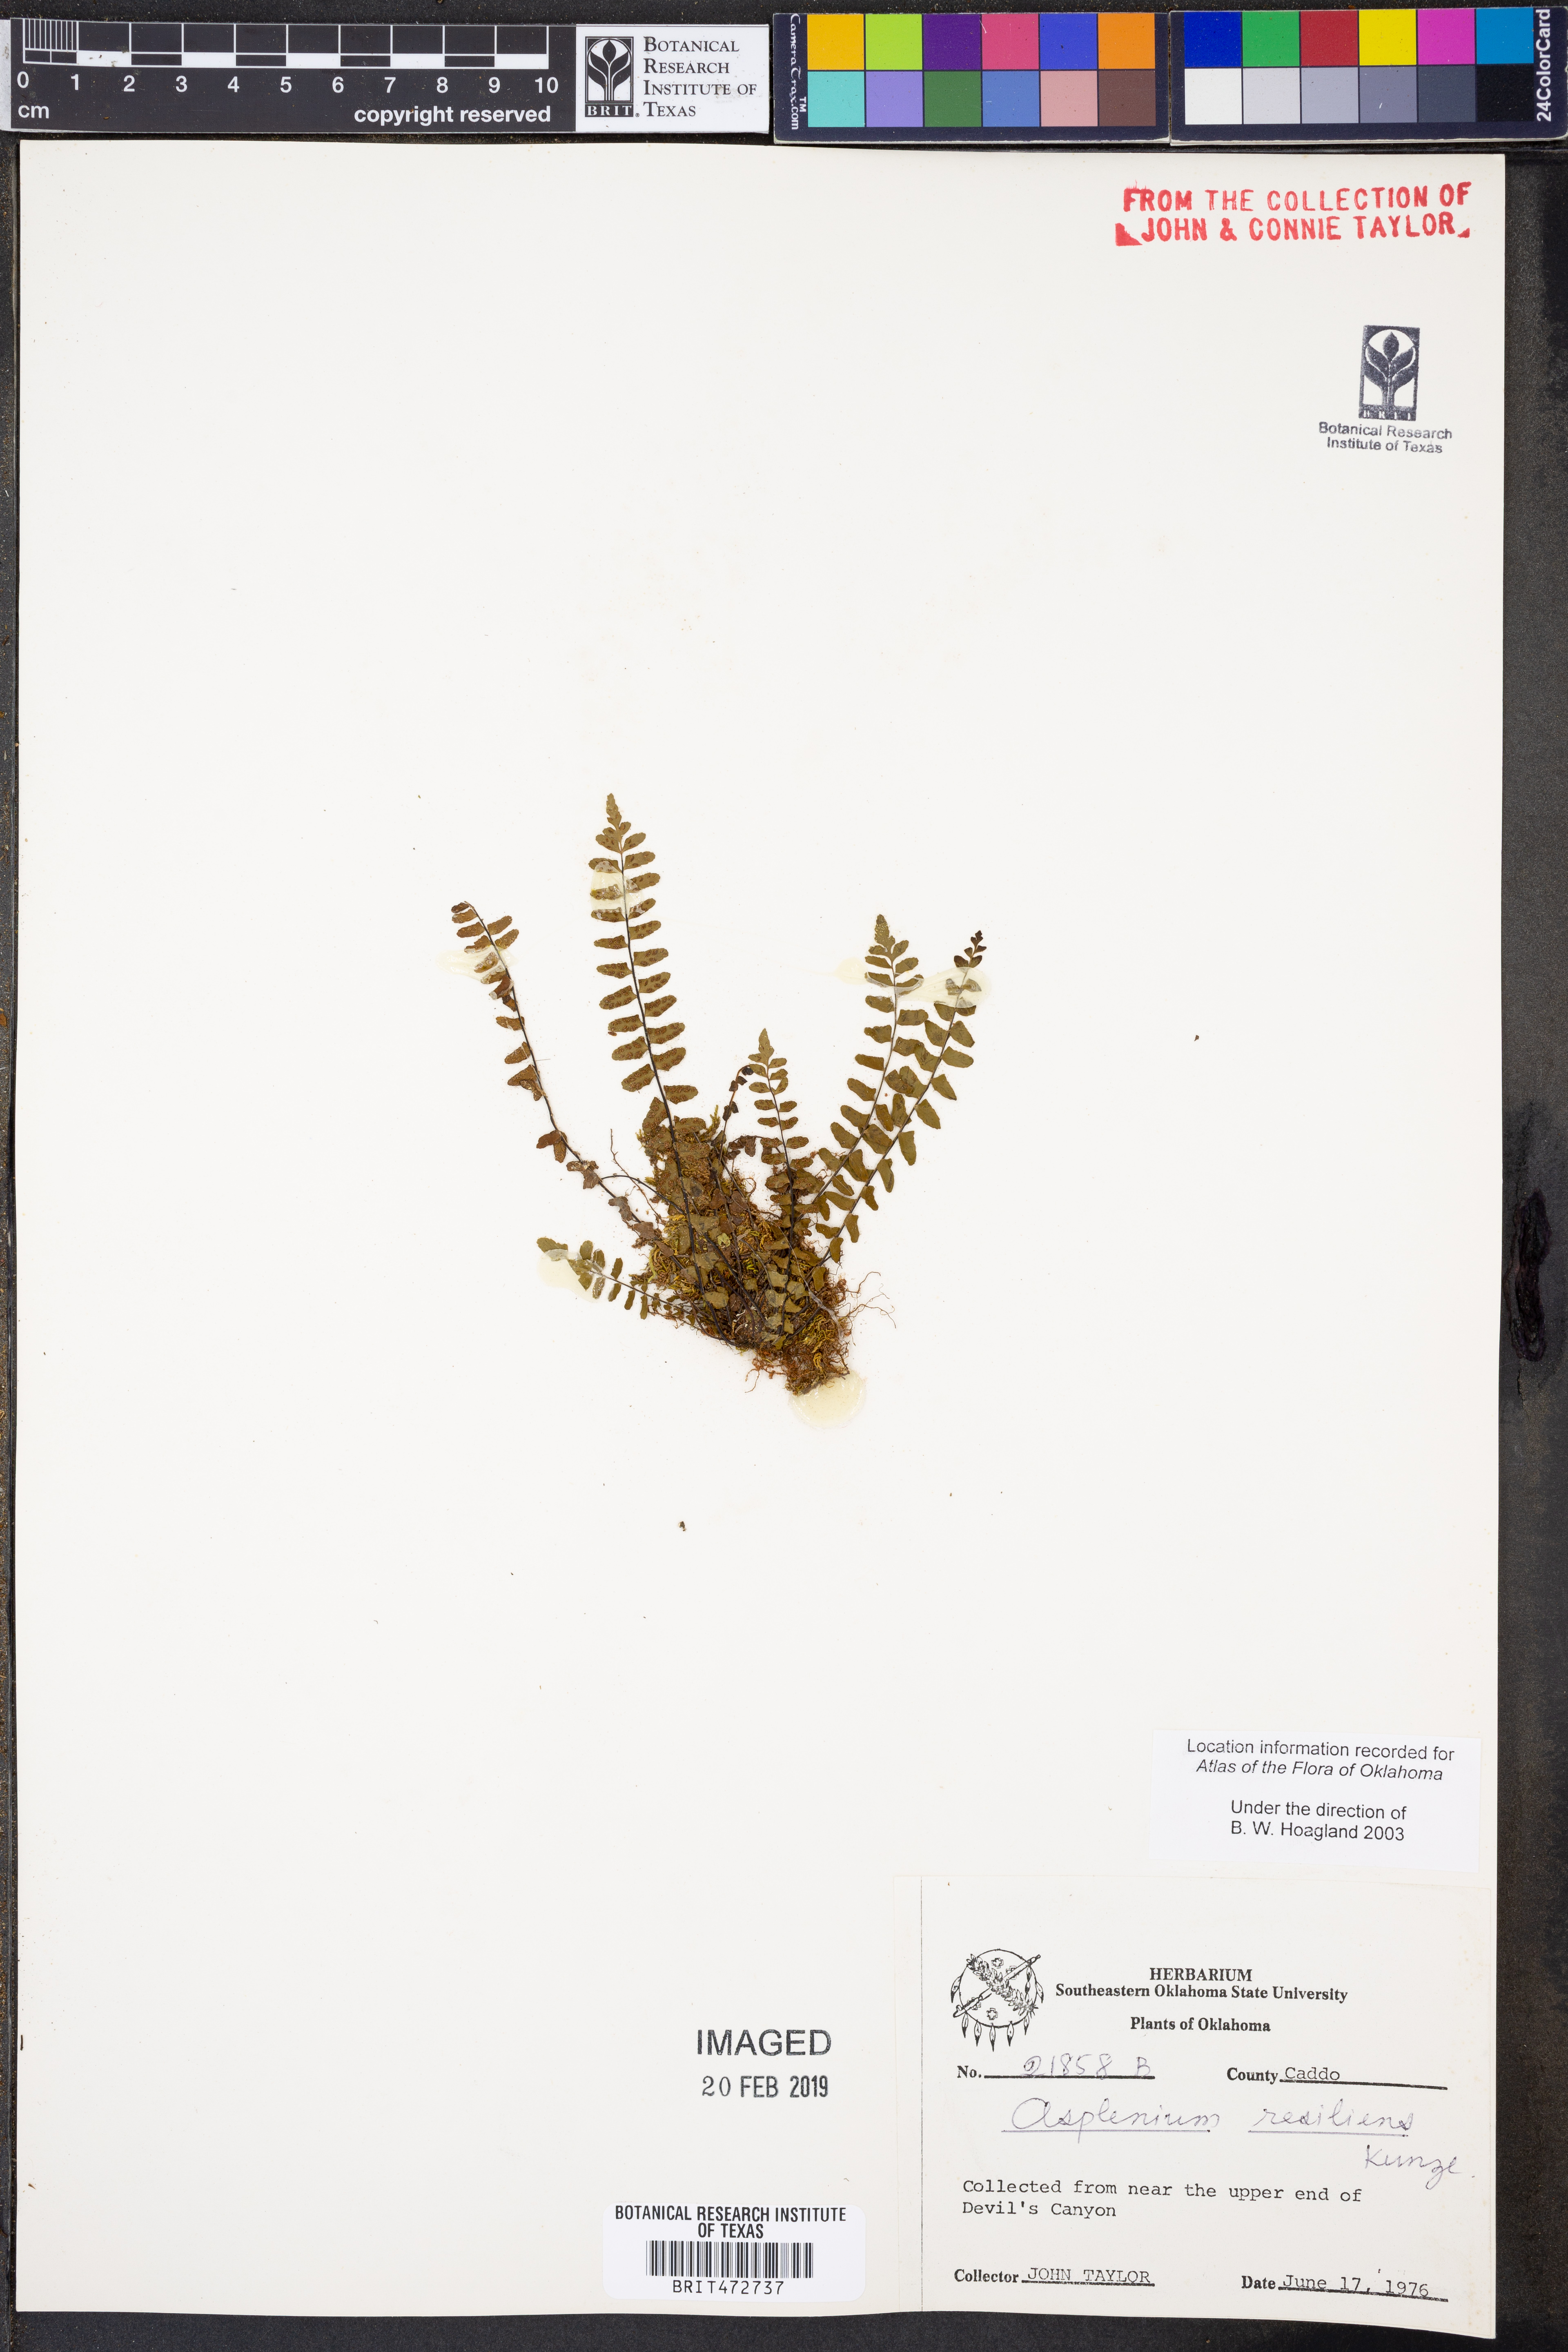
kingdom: Plantae
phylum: Tracheophyta
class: Polypodiopsida
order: Polypodiales
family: Aspleniaceae
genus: Asplenium
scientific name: Asplenium resiliens
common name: Blackstem spleenwort
